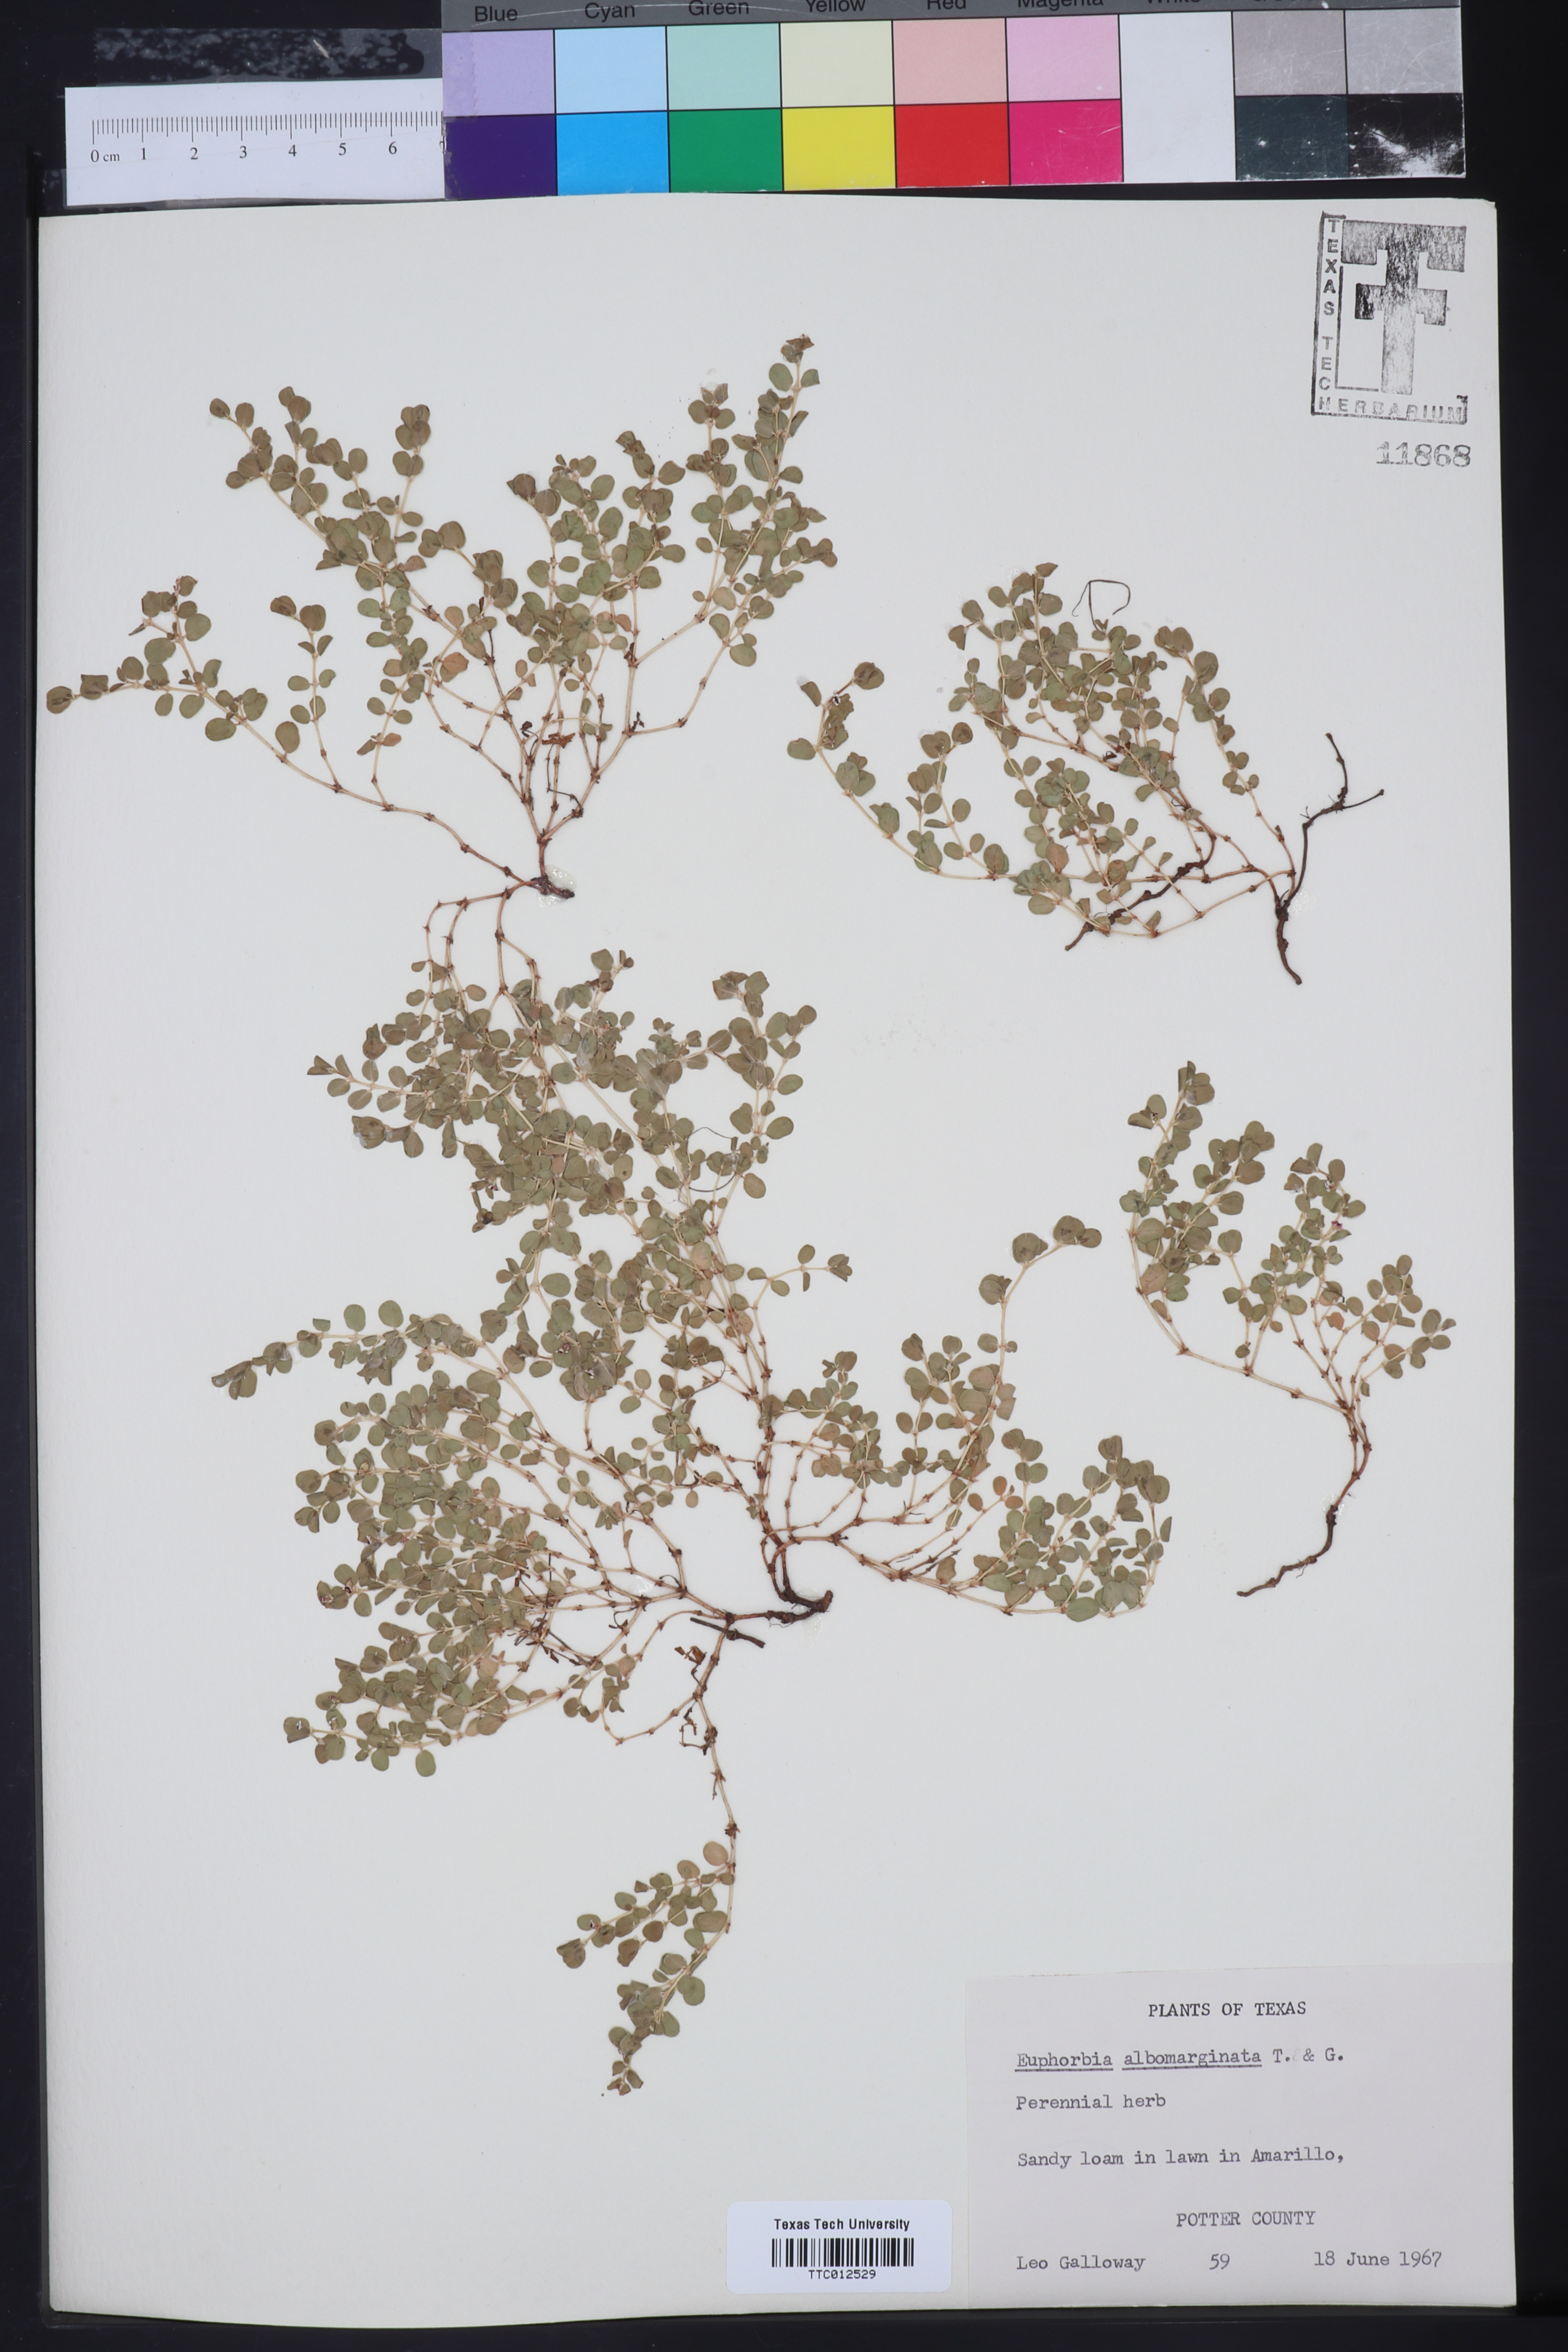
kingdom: Plantae
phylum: Tracheophyta
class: Magnoliopsida
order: Malpighiales
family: Euphorbiaceae
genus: Euphorbia
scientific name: Euphorbia albomarginata
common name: Whitemargin sandmat
